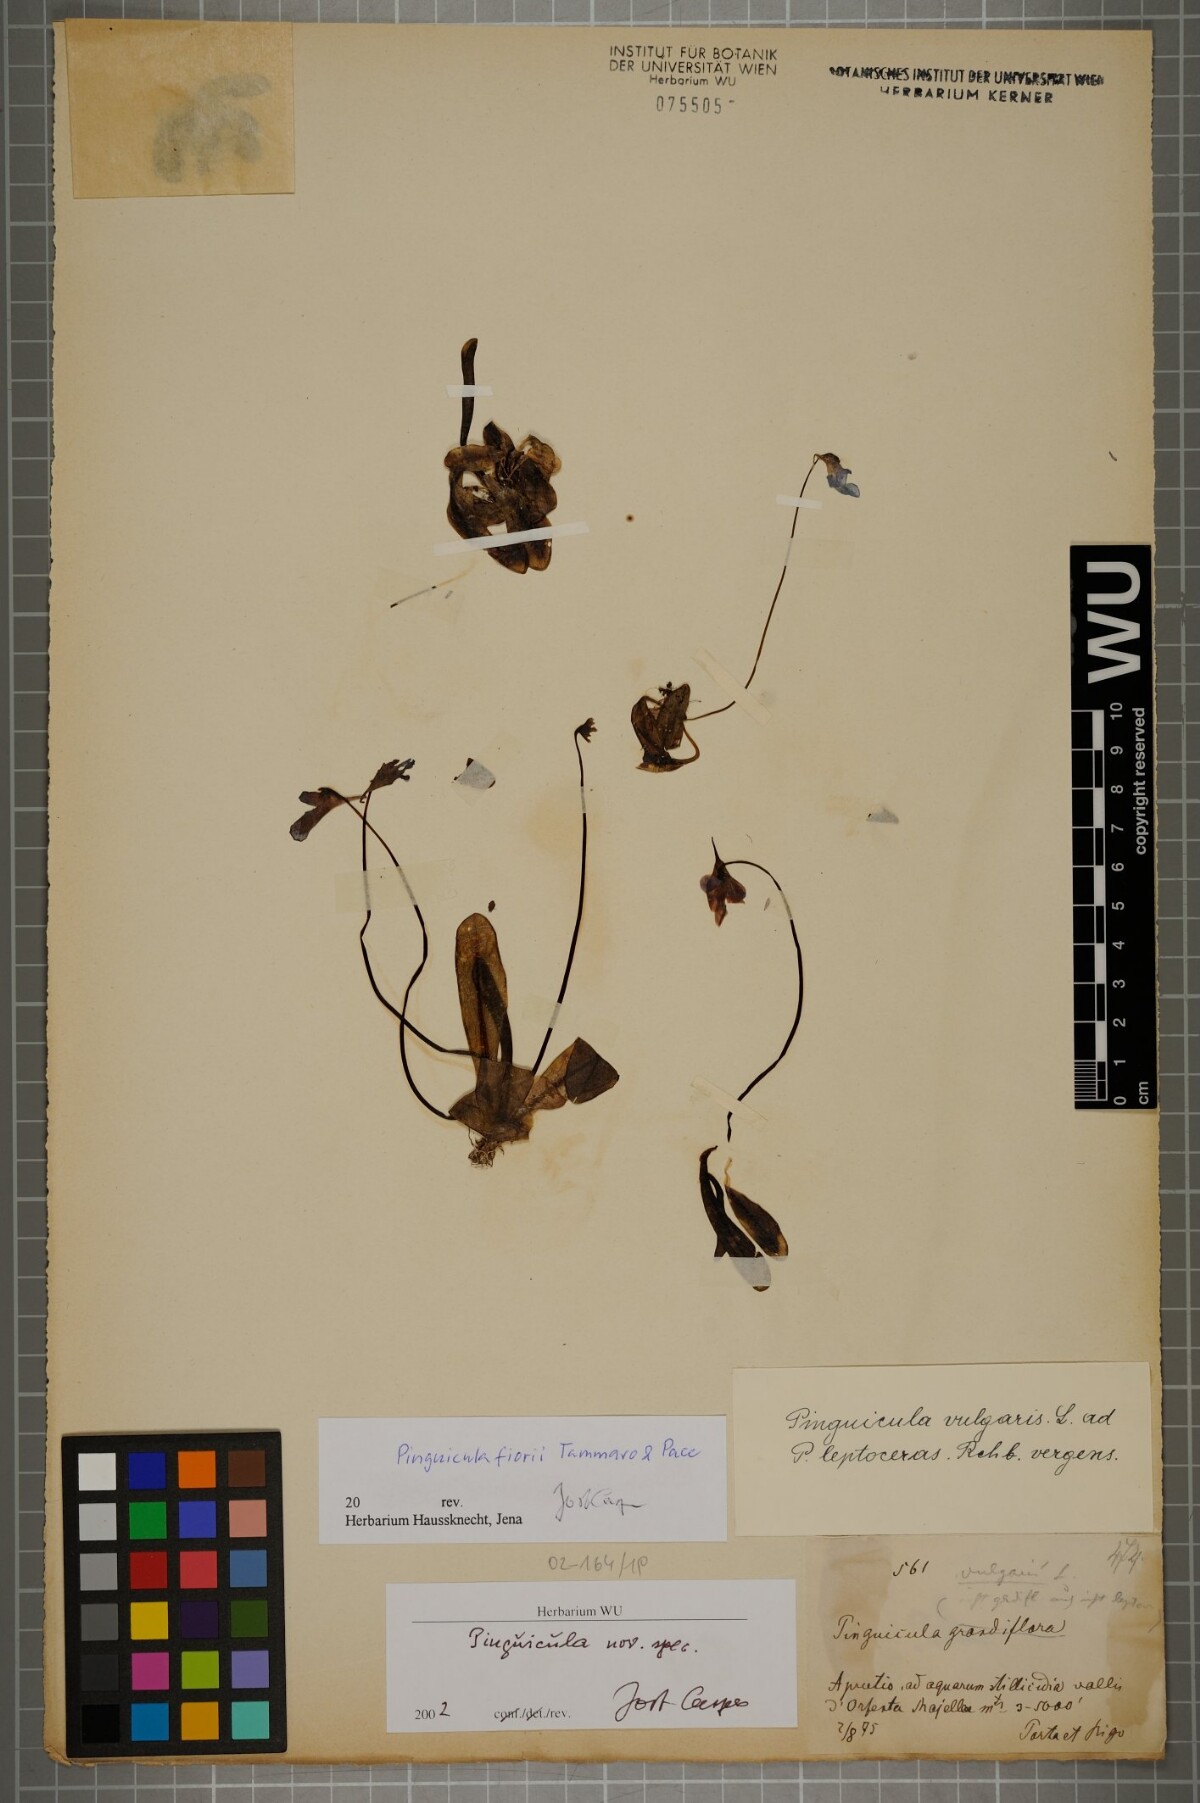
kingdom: Plantae
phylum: Tracheophyta
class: Magnoliopsida
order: Lamiales
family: Lentibulariaceae
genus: Pinguicula
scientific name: Pinguicula fiorii
